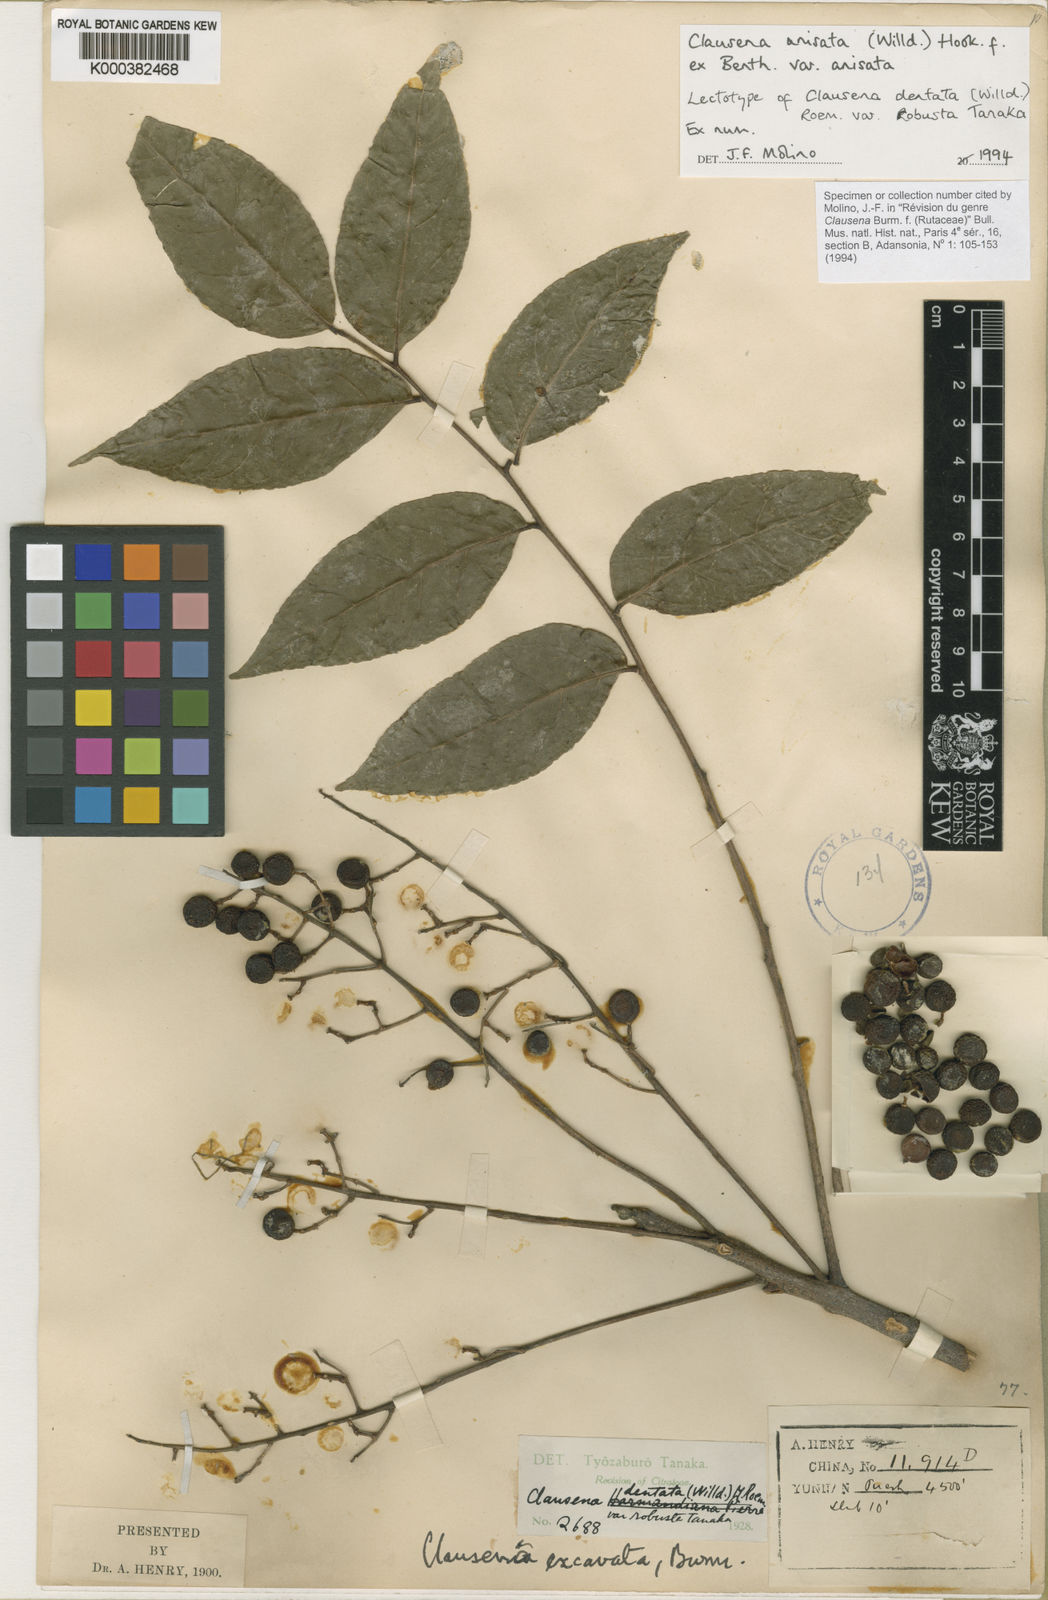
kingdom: Plantae
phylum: Tracheophyta
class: Magnoliopsida
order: Sapindales
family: Rutaceae
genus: Clausena
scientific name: Clausena anisata
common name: Horsewood
